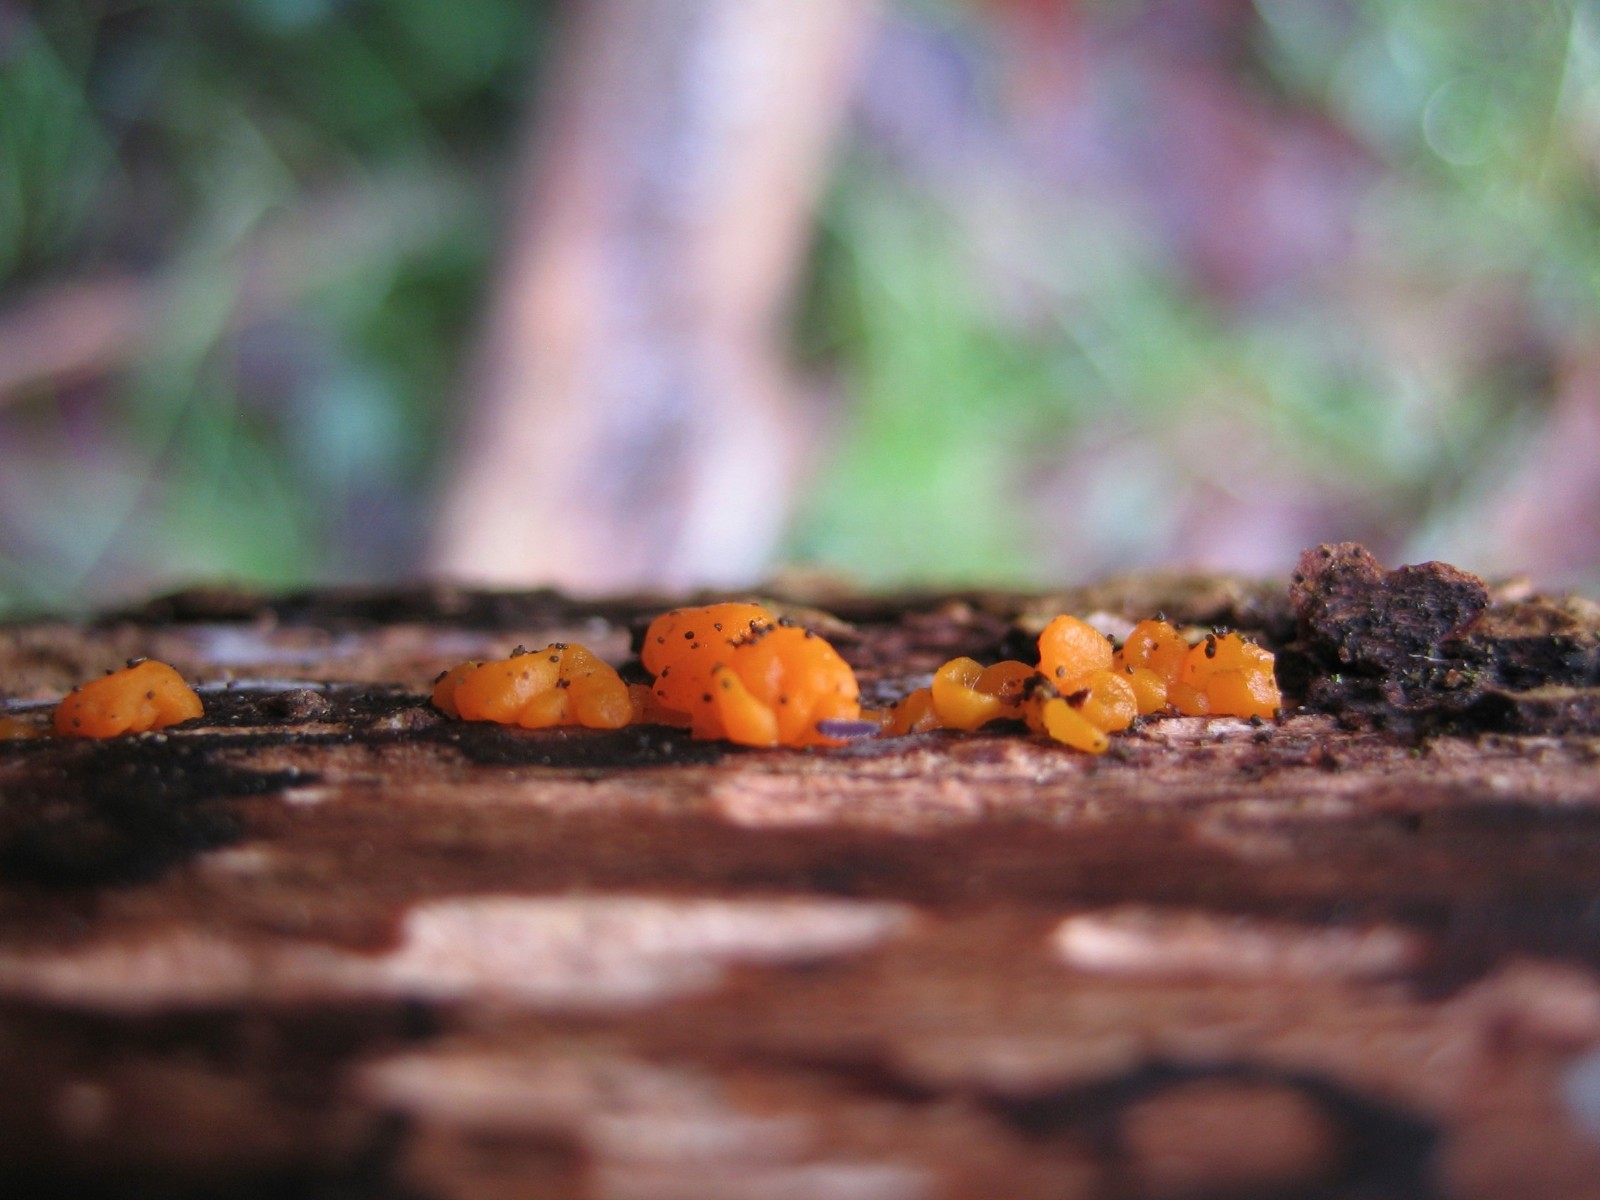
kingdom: Fungi
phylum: Basidiomycota
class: Dacrymycetes
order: Dacrymycetales
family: Dacrymycetaceae
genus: Dacrymyces
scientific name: Dacrymyces
